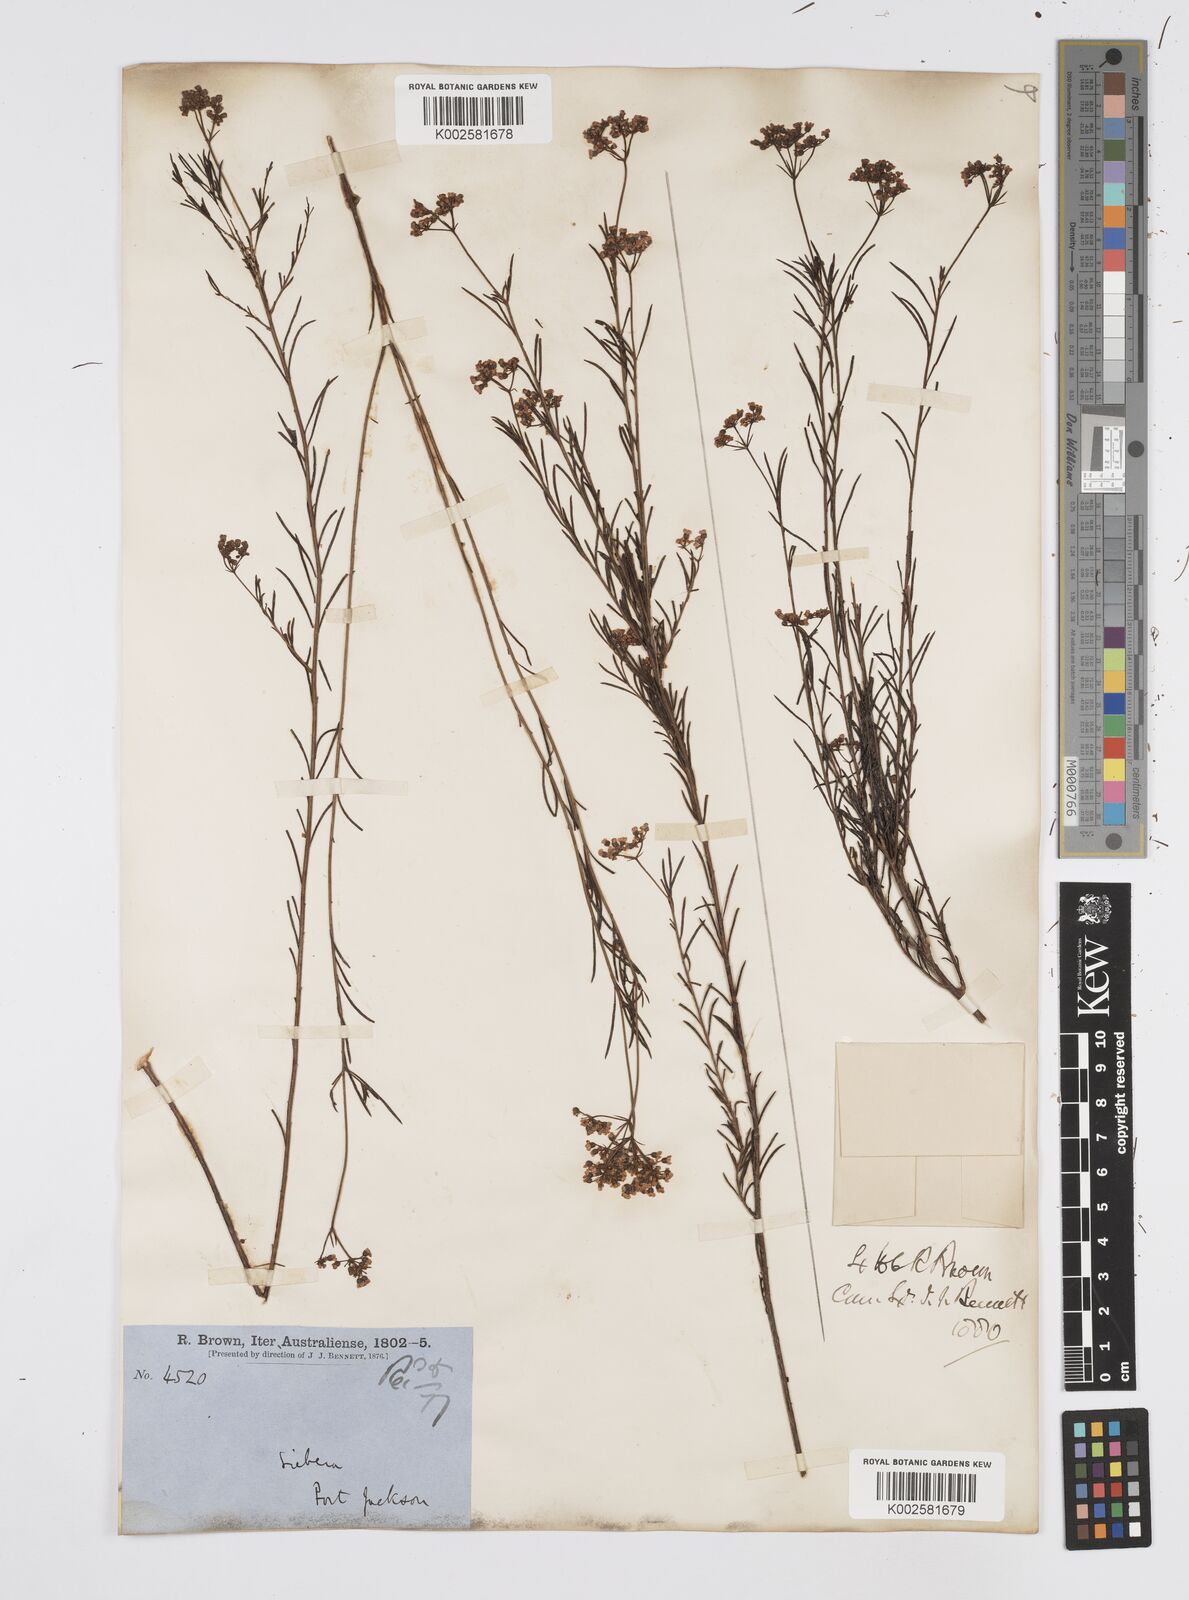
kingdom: Plantae
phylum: Tracheophyta
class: Magnoliopsida
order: Apiales
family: Apiaceae
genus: Platysace
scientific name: Platysace linearifolia
